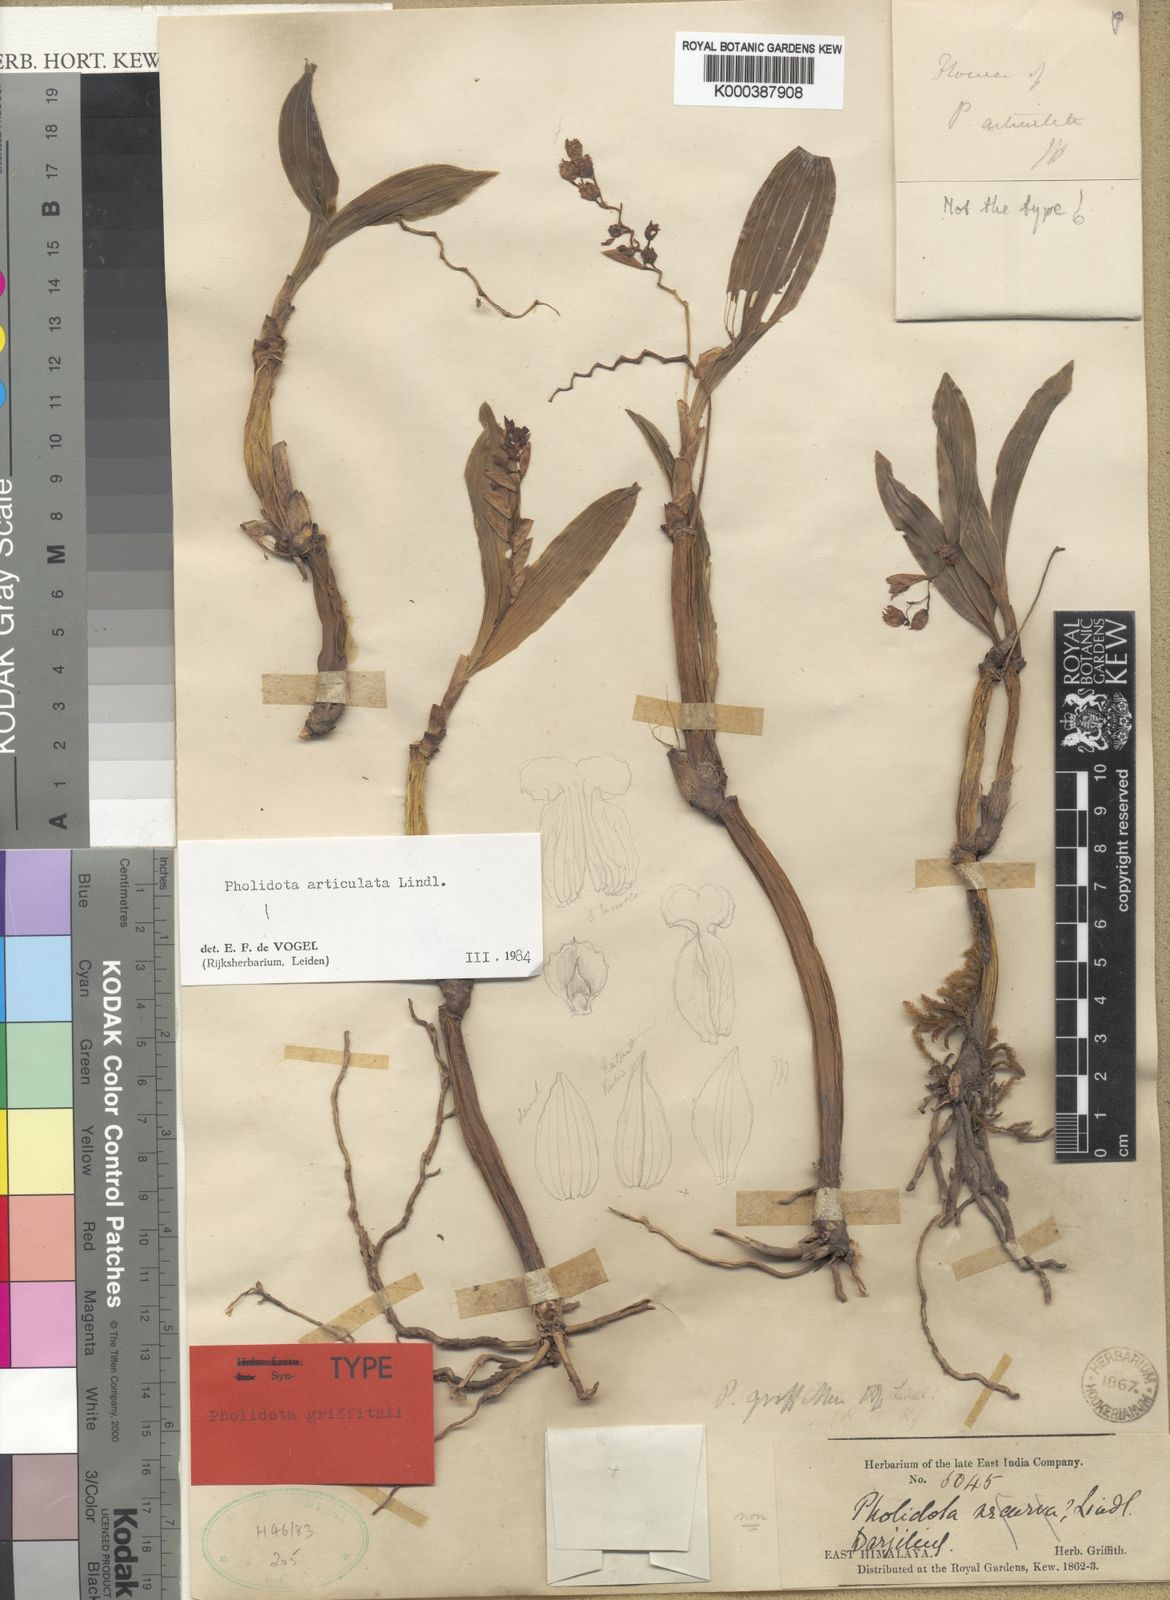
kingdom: Plantae
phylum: Tracheophyta
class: Liliopsida
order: Asparagales
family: Orchidaceae
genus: Coelogyne
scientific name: Coelogyne articulata
